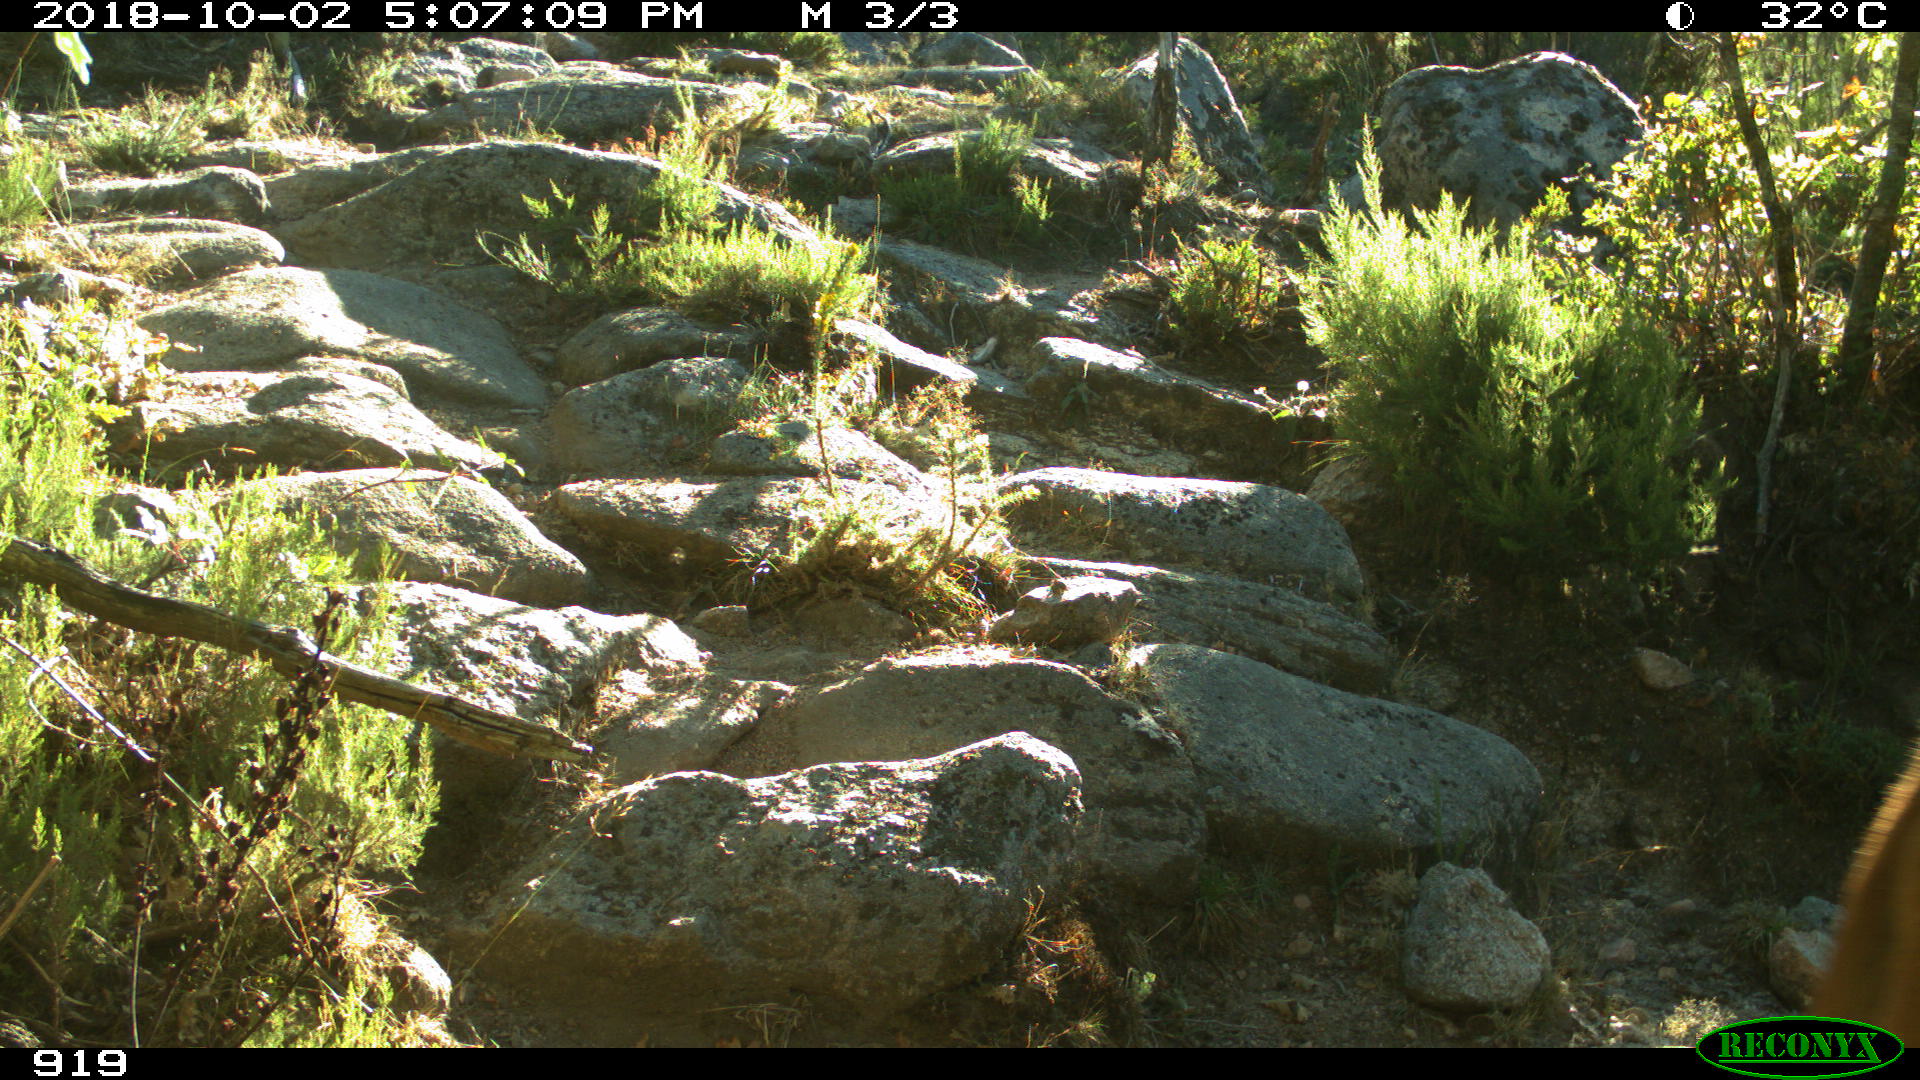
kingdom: Animalia
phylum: Chordata
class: Mammalia
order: Artiodactyla
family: Bovidae
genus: Bos
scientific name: Bos taurus
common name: Domesticated cattle
